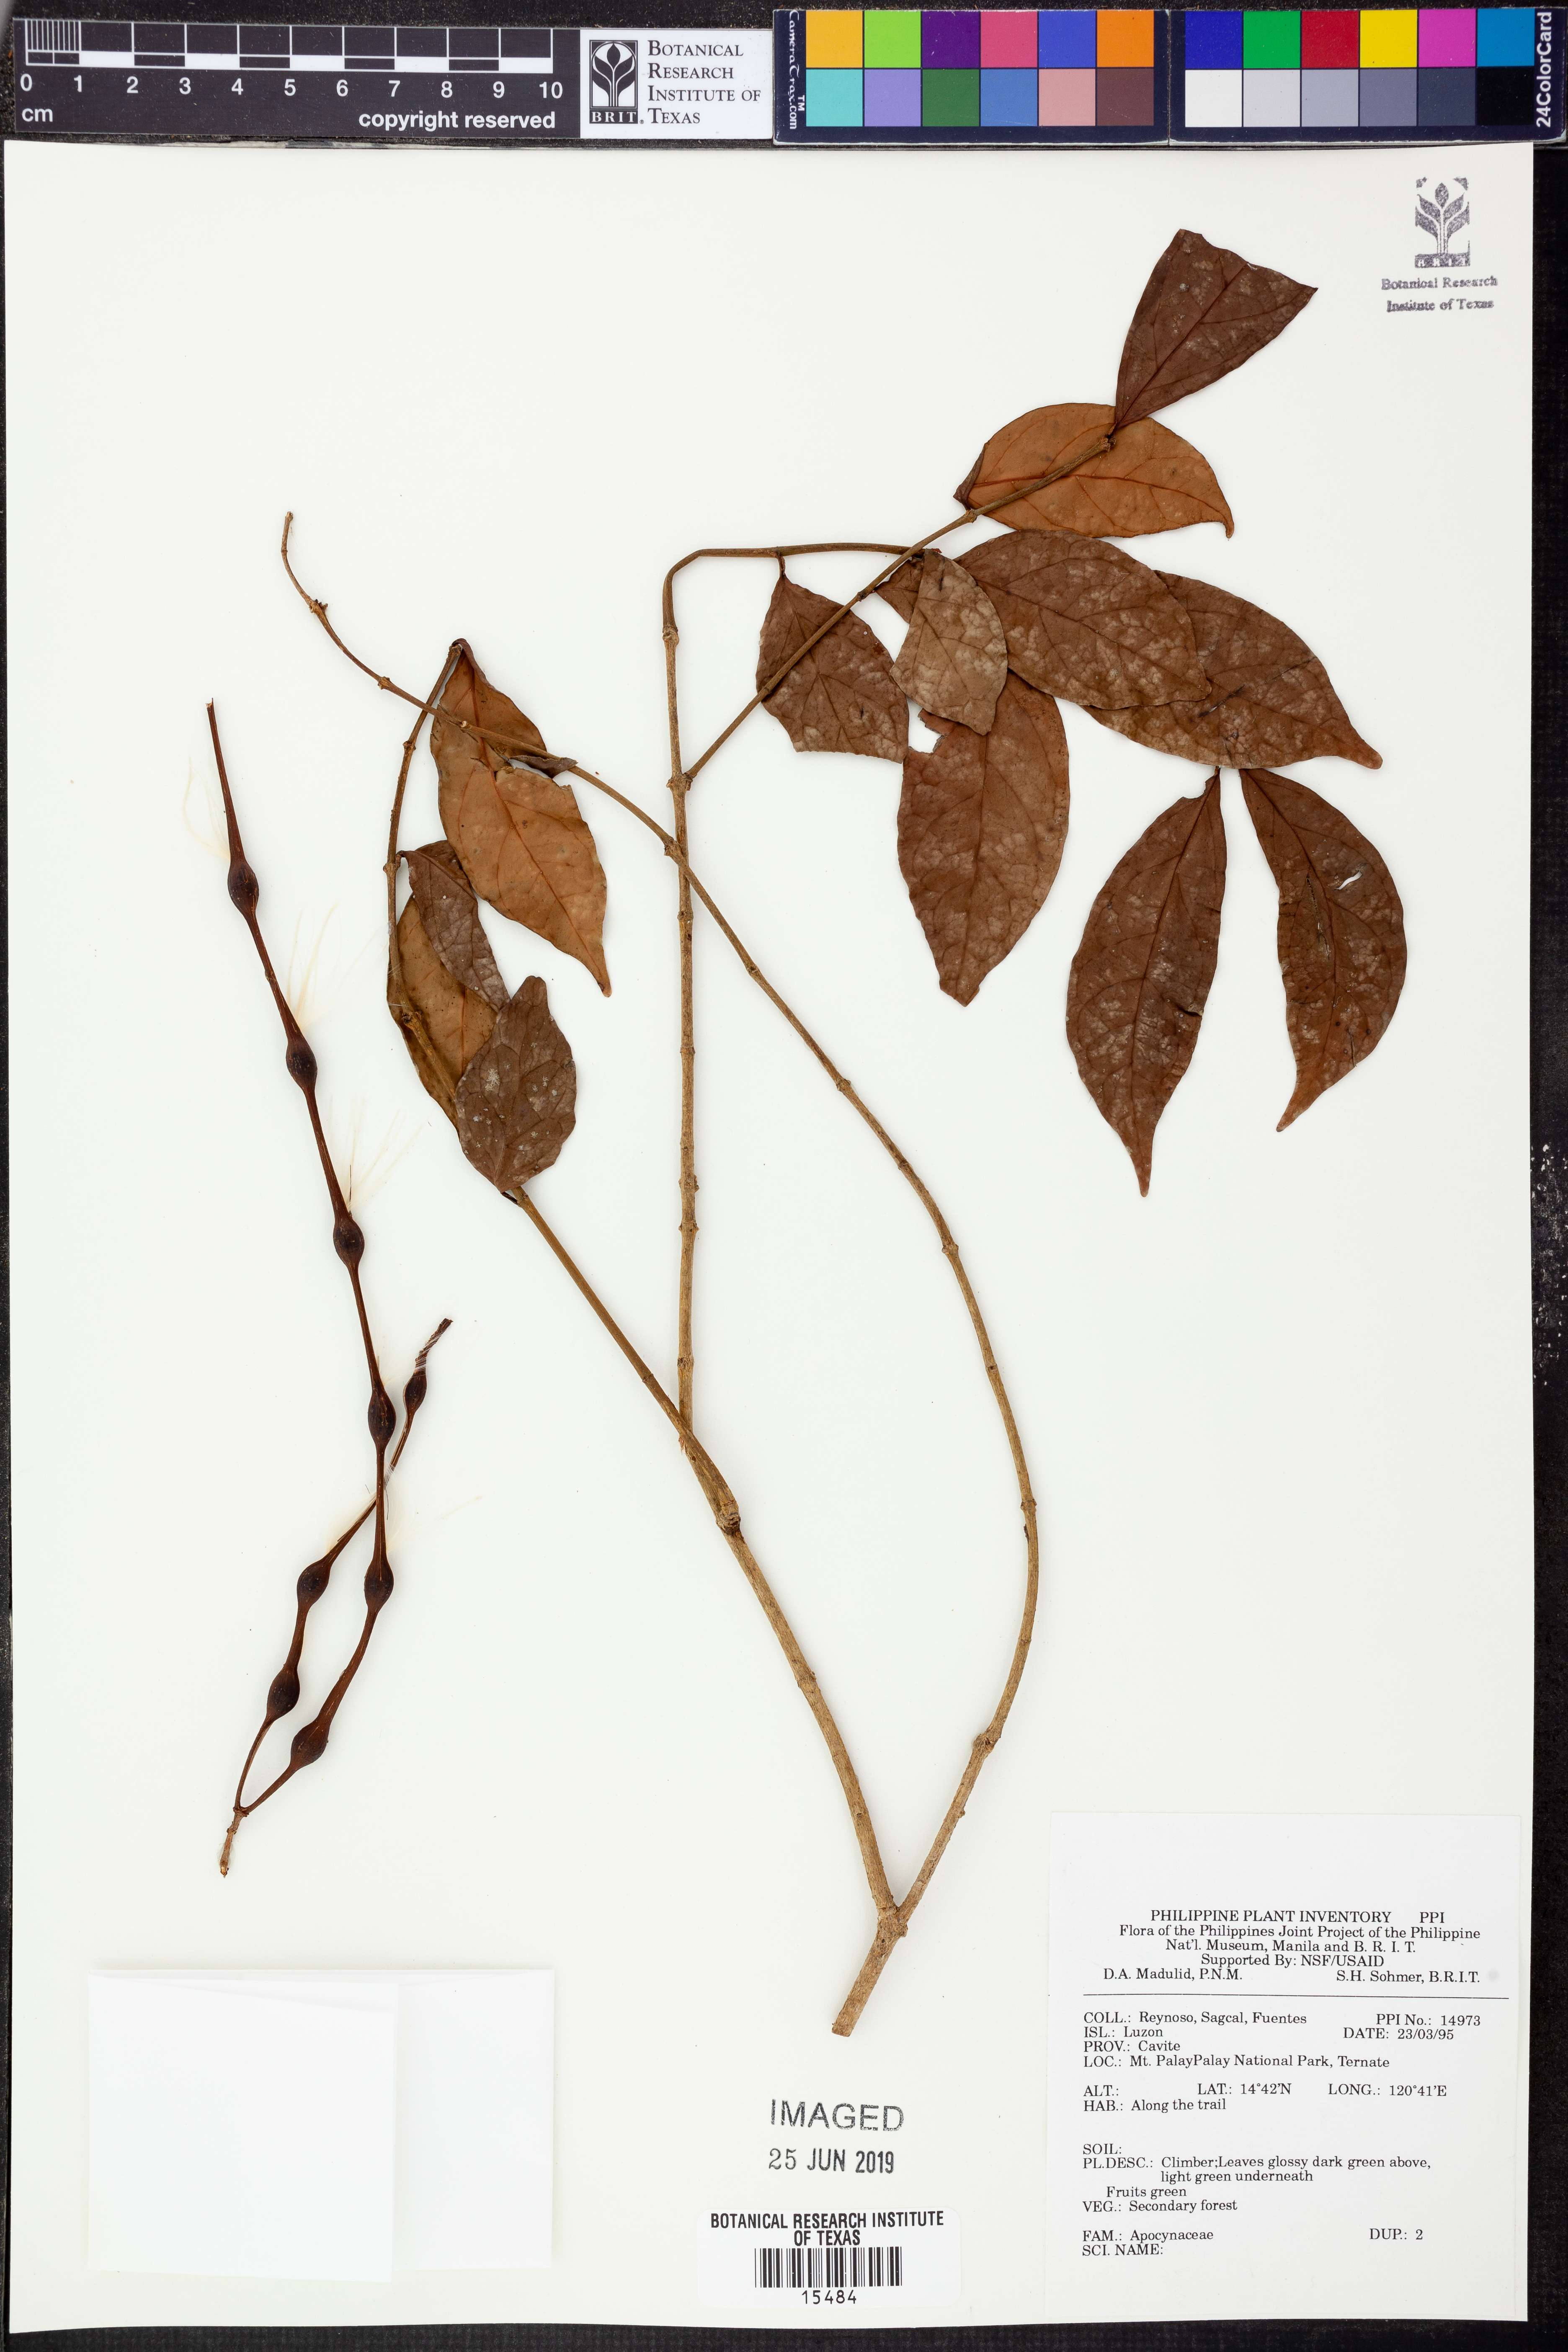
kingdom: Plantae
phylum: Tracheophyta
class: Magnoliopsida
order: Gentianales
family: Apocynaceae
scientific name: Apocynaceae
